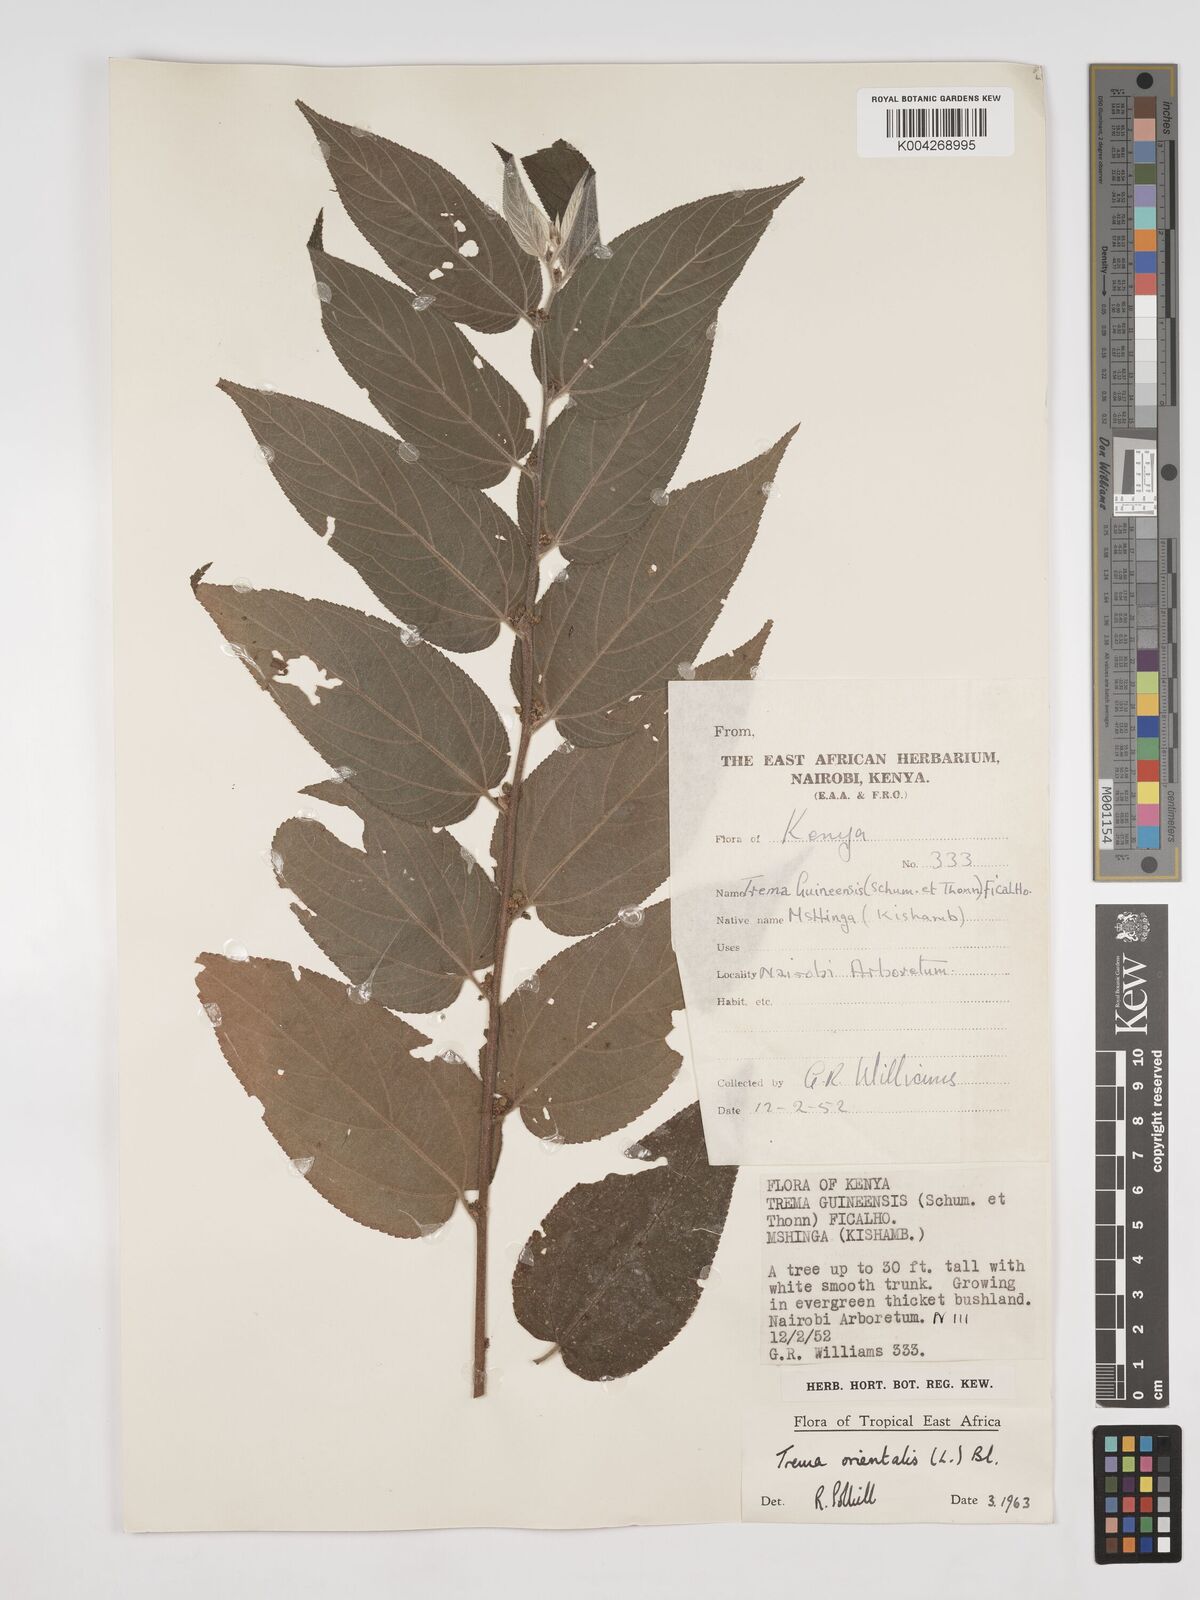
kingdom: Plantae
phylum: Tracheophyta
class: Magnoliopsida
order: Rosales
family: Cannabaceae
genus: Trema
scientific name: Trema orientale
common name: Indian charcoal tree
